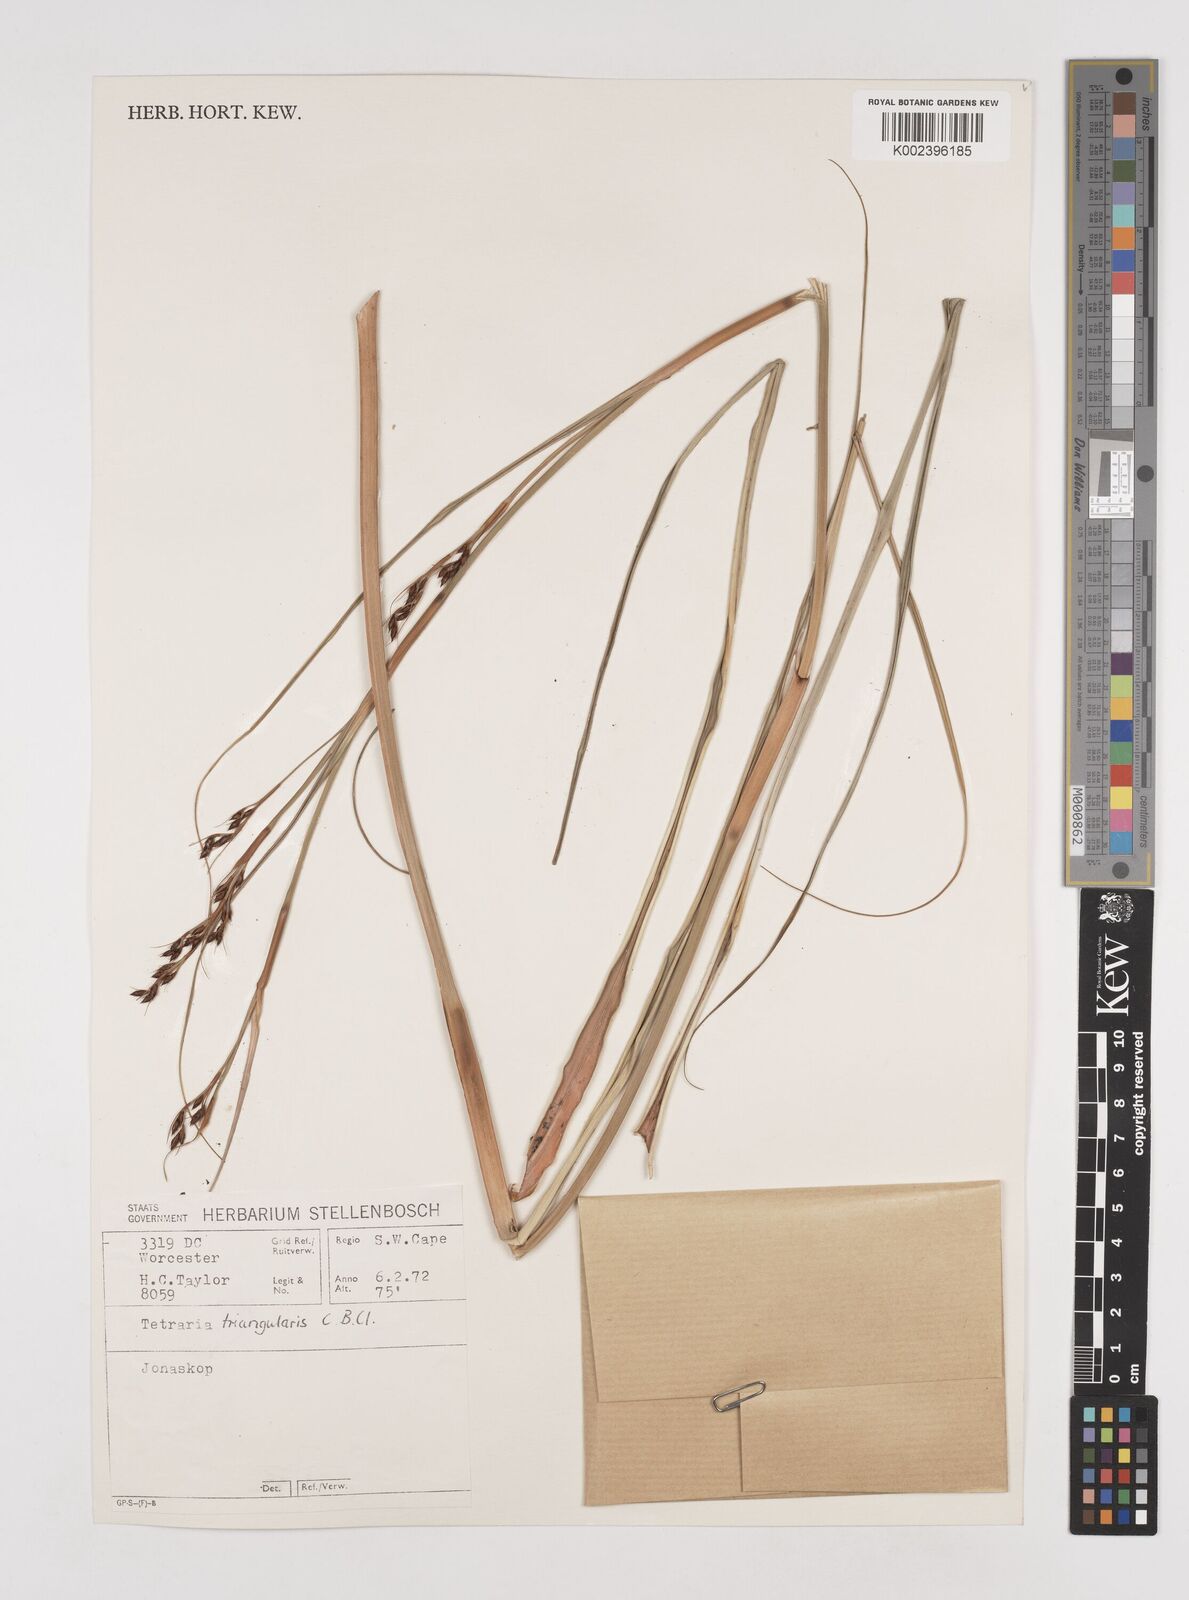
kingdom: Plantae
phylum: Tracheophyta
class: Liliopsida
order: Poales
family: Cyperaceae
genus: Tetraria
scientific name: Tetraria triangularis
